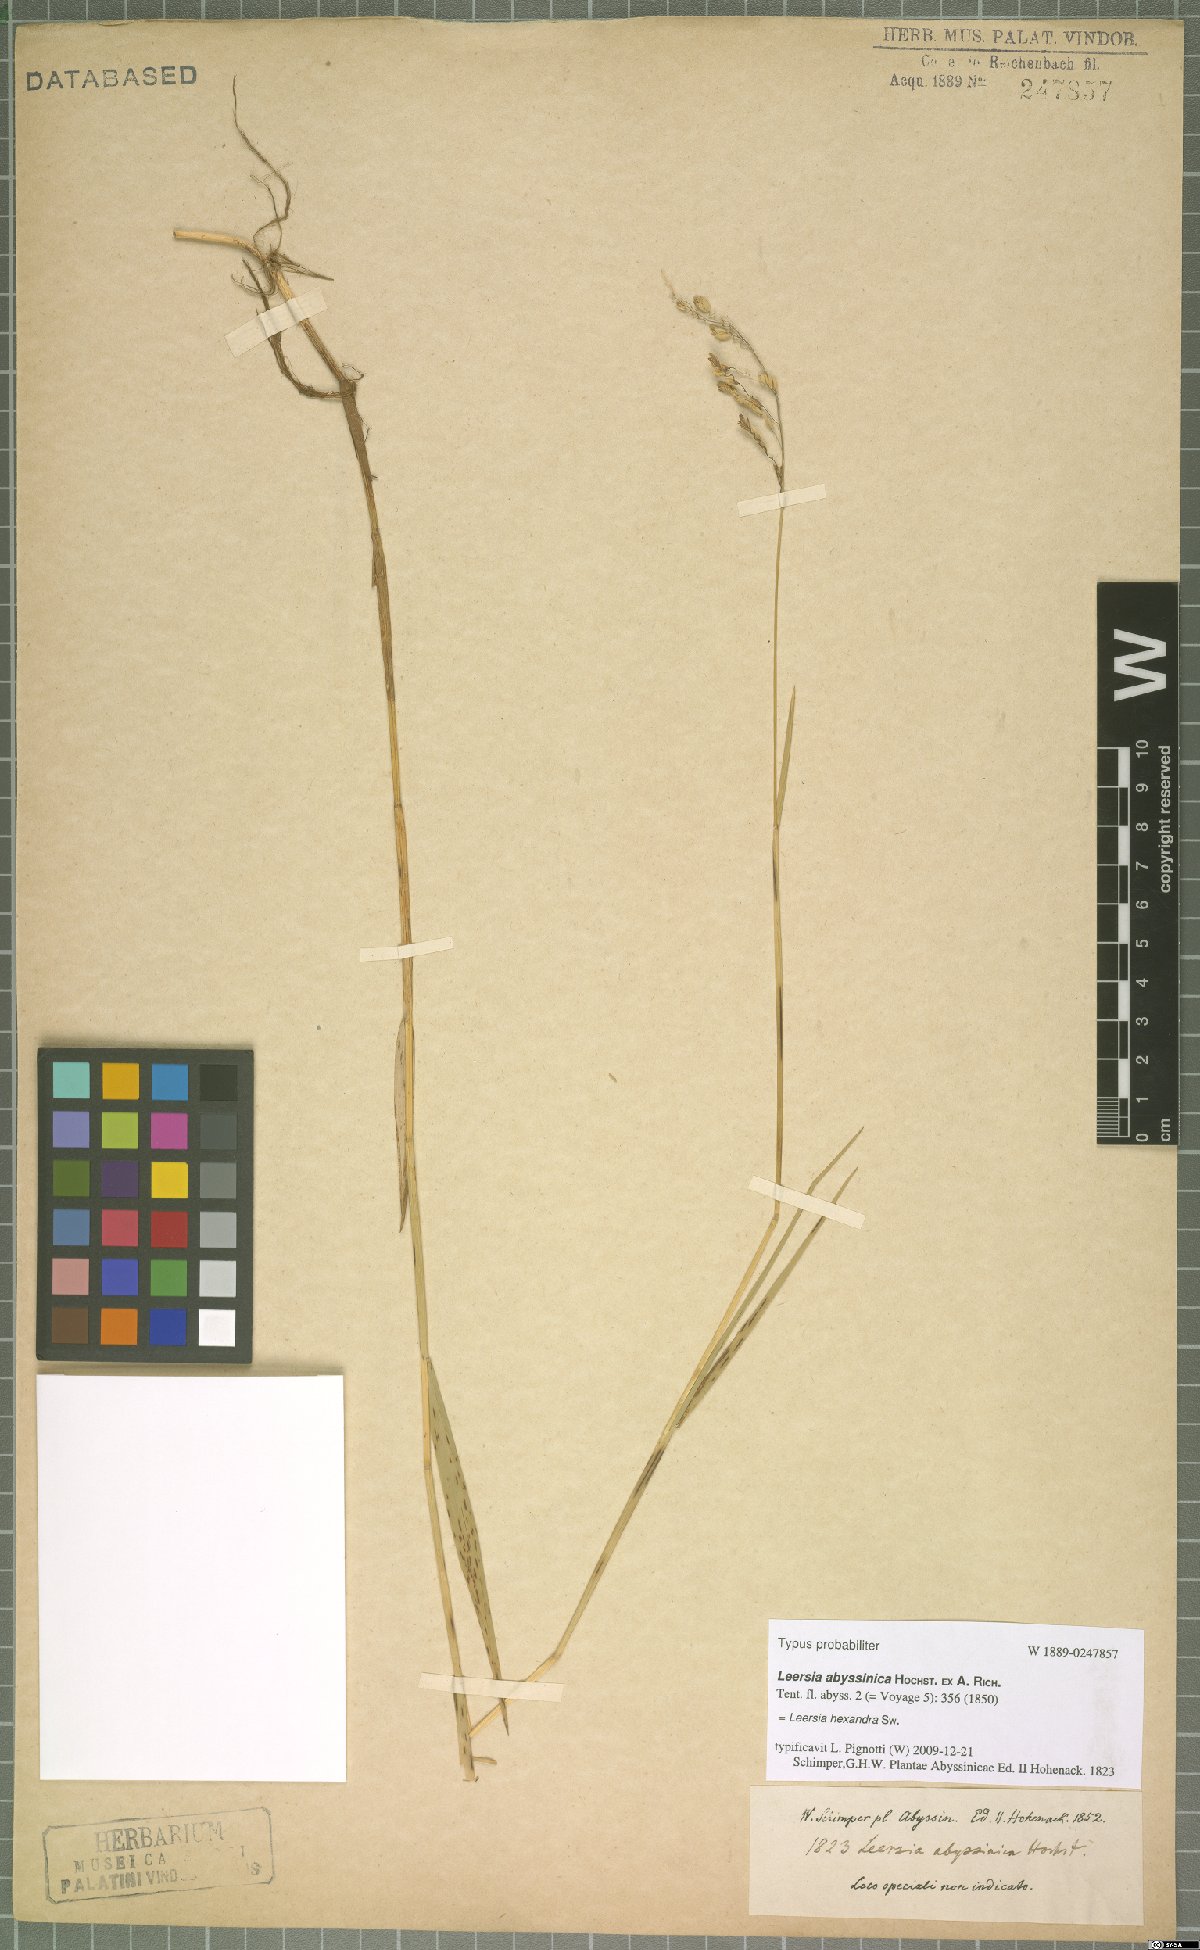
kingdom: Plantae
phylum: Tracheophyta
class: Liliopsida
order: Poales
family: Poaceae
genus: Leersia
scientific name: Leersia hexandra
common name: Southern cut grass
